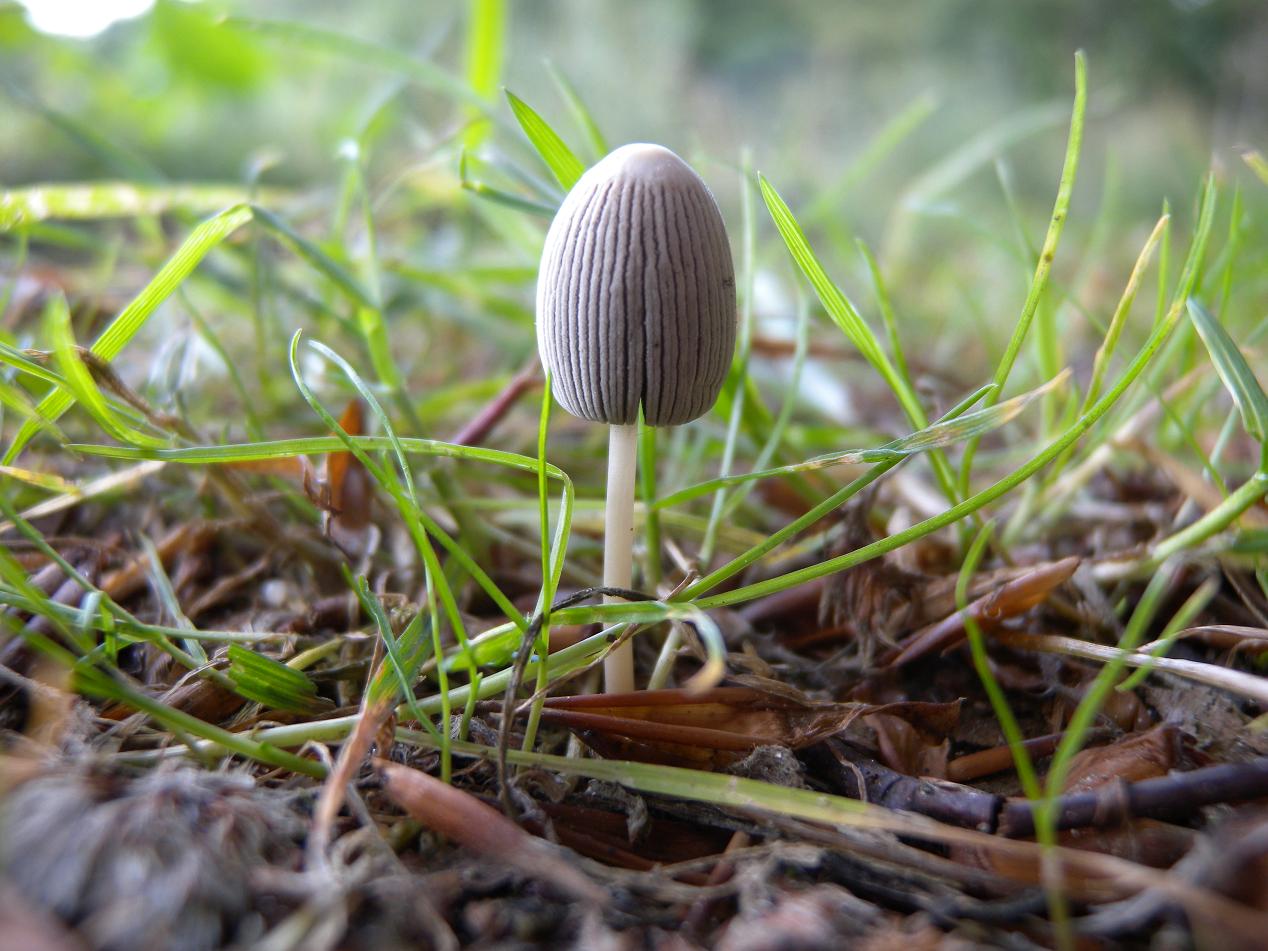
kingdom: Fungi
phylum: Basidiomycota
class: Agaricomycetes
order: Agaricales
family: Psathyrellaceae
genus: Parasola
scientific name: Parasola plicatilis
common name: plæne-hjulhat
